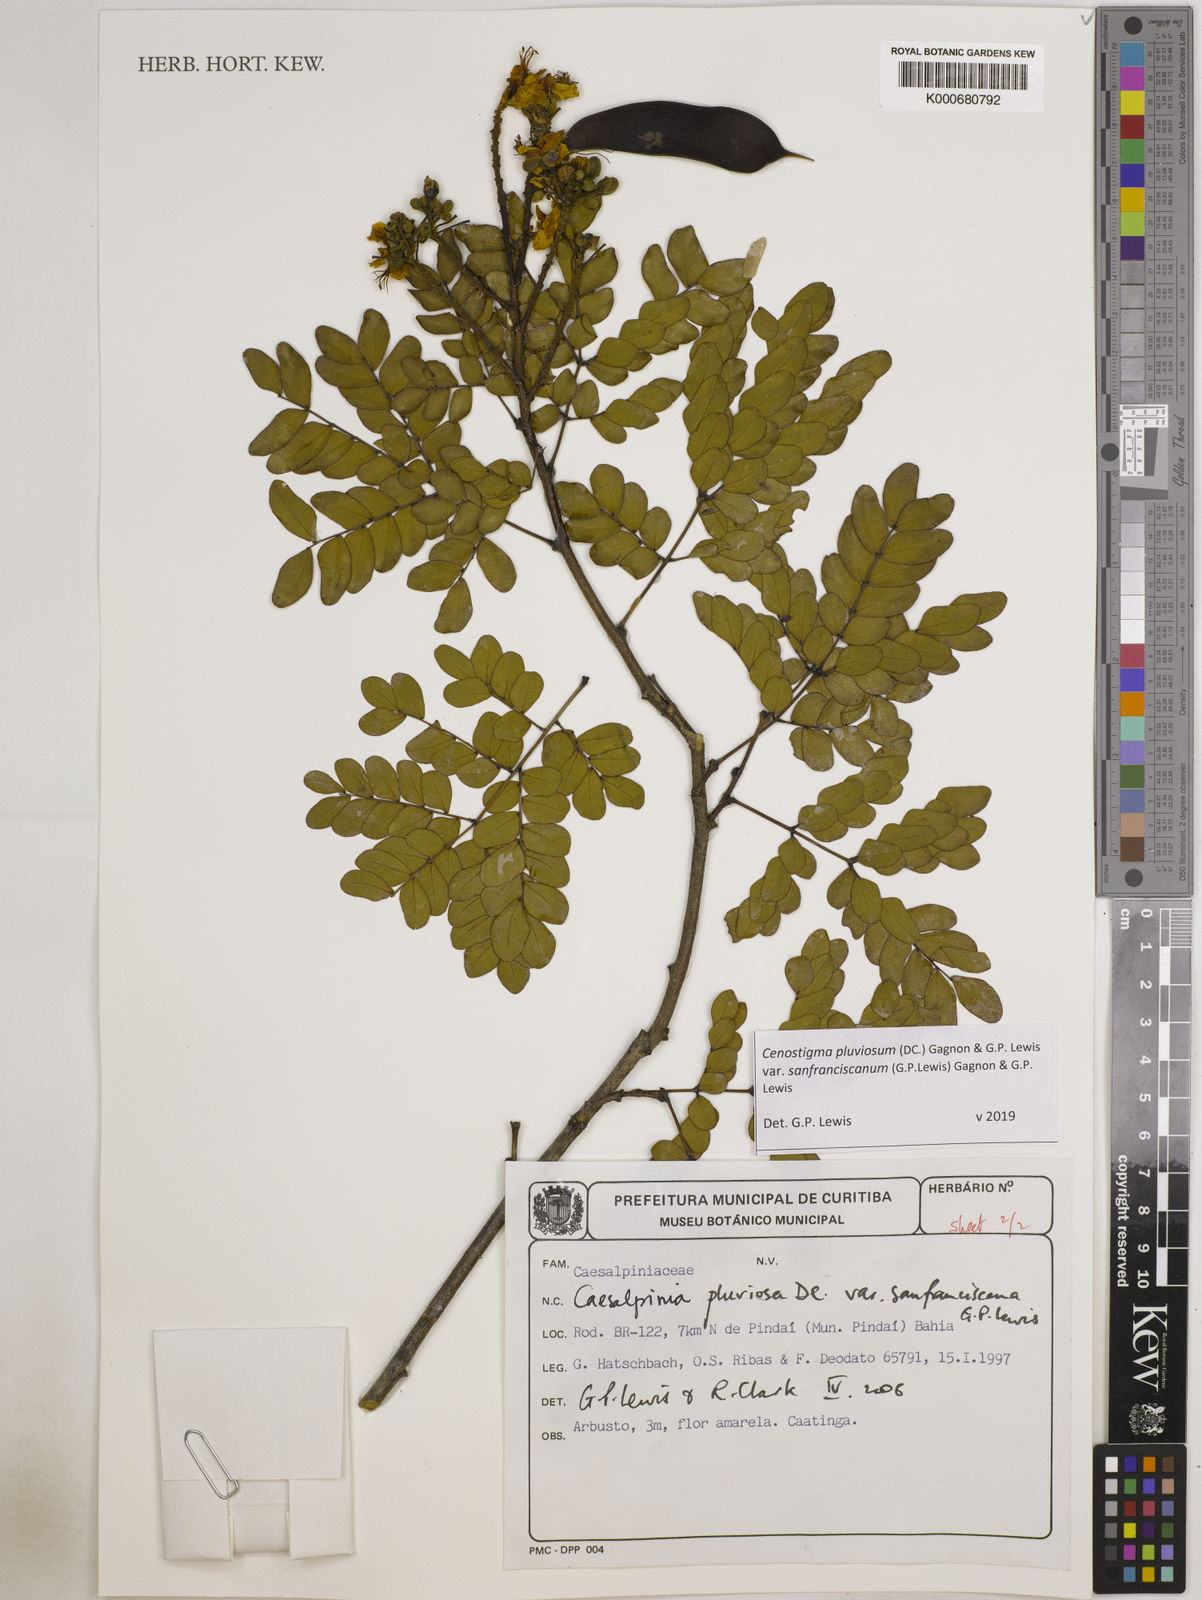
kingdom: Plantae
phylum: Tracheophyta
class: Magnoliopsida
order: Fabales
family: Fabaceae
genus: Cenostigma
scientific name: Cenostigma pluviosum
